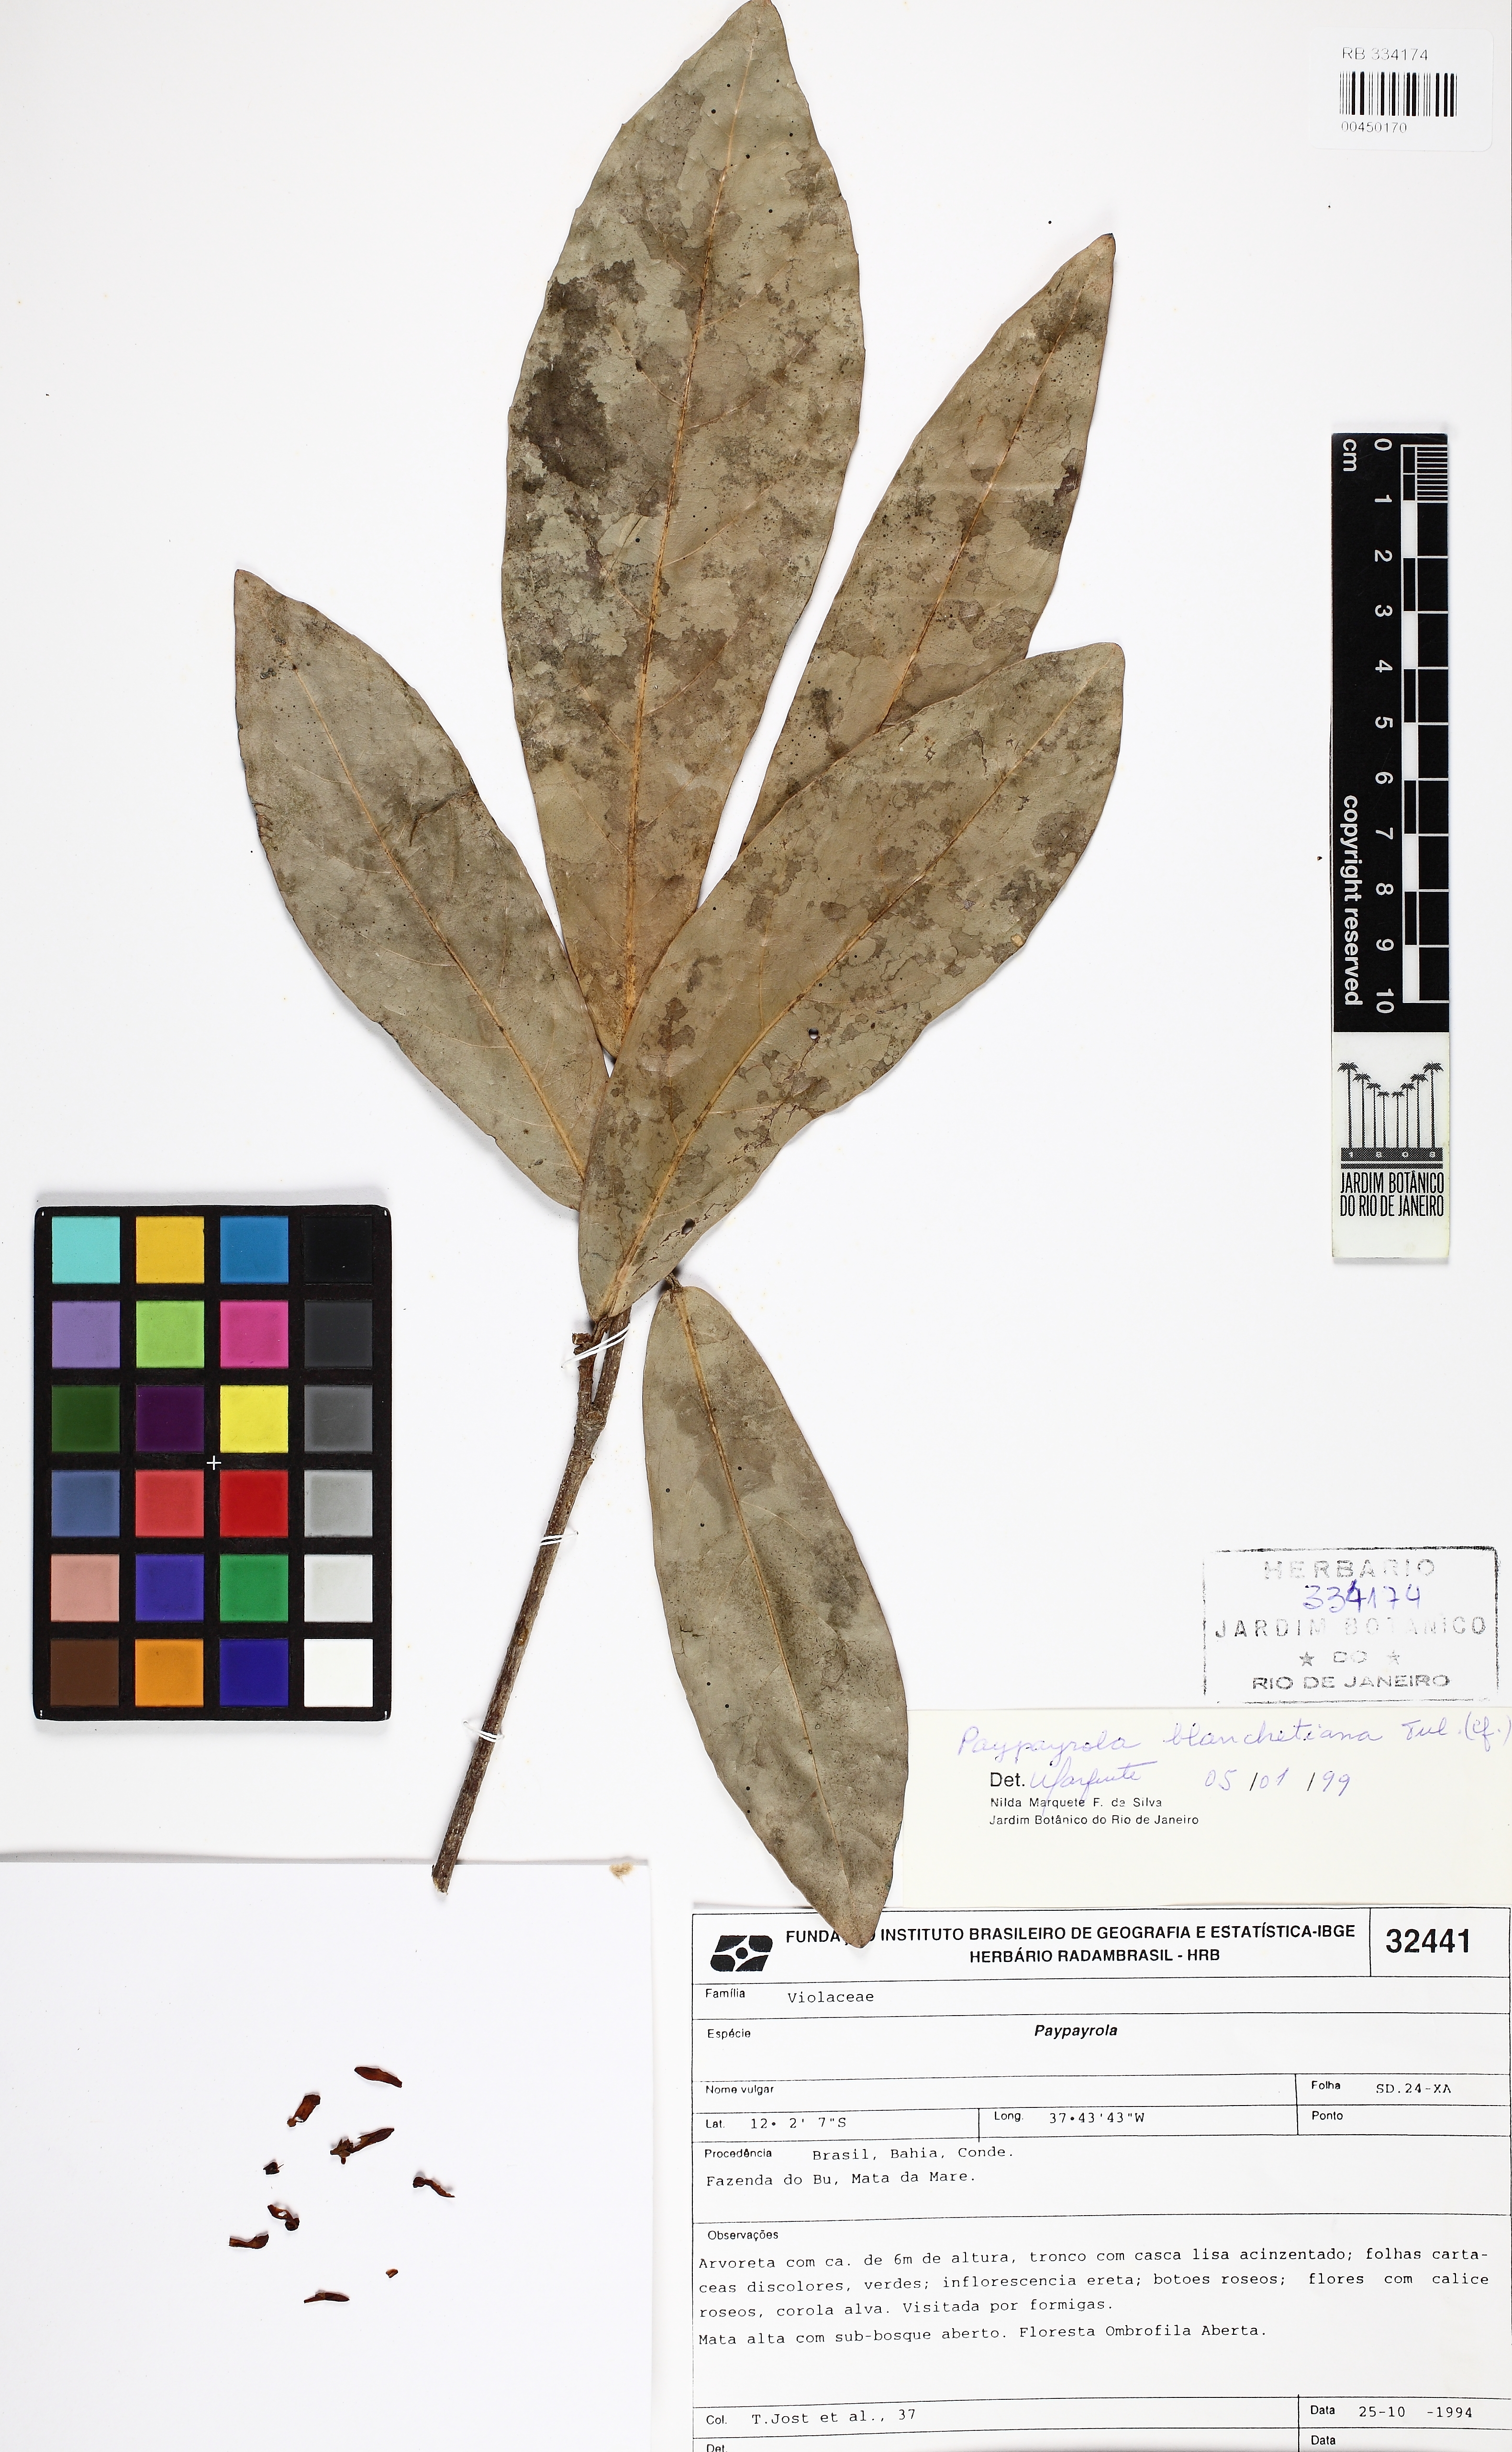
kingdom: Plantae
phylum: Tracheophyta
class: Magnoliopsida
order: Malpighiales
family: Violaceae
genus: Paypayrola
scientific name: Paypayrola blanchetiana
